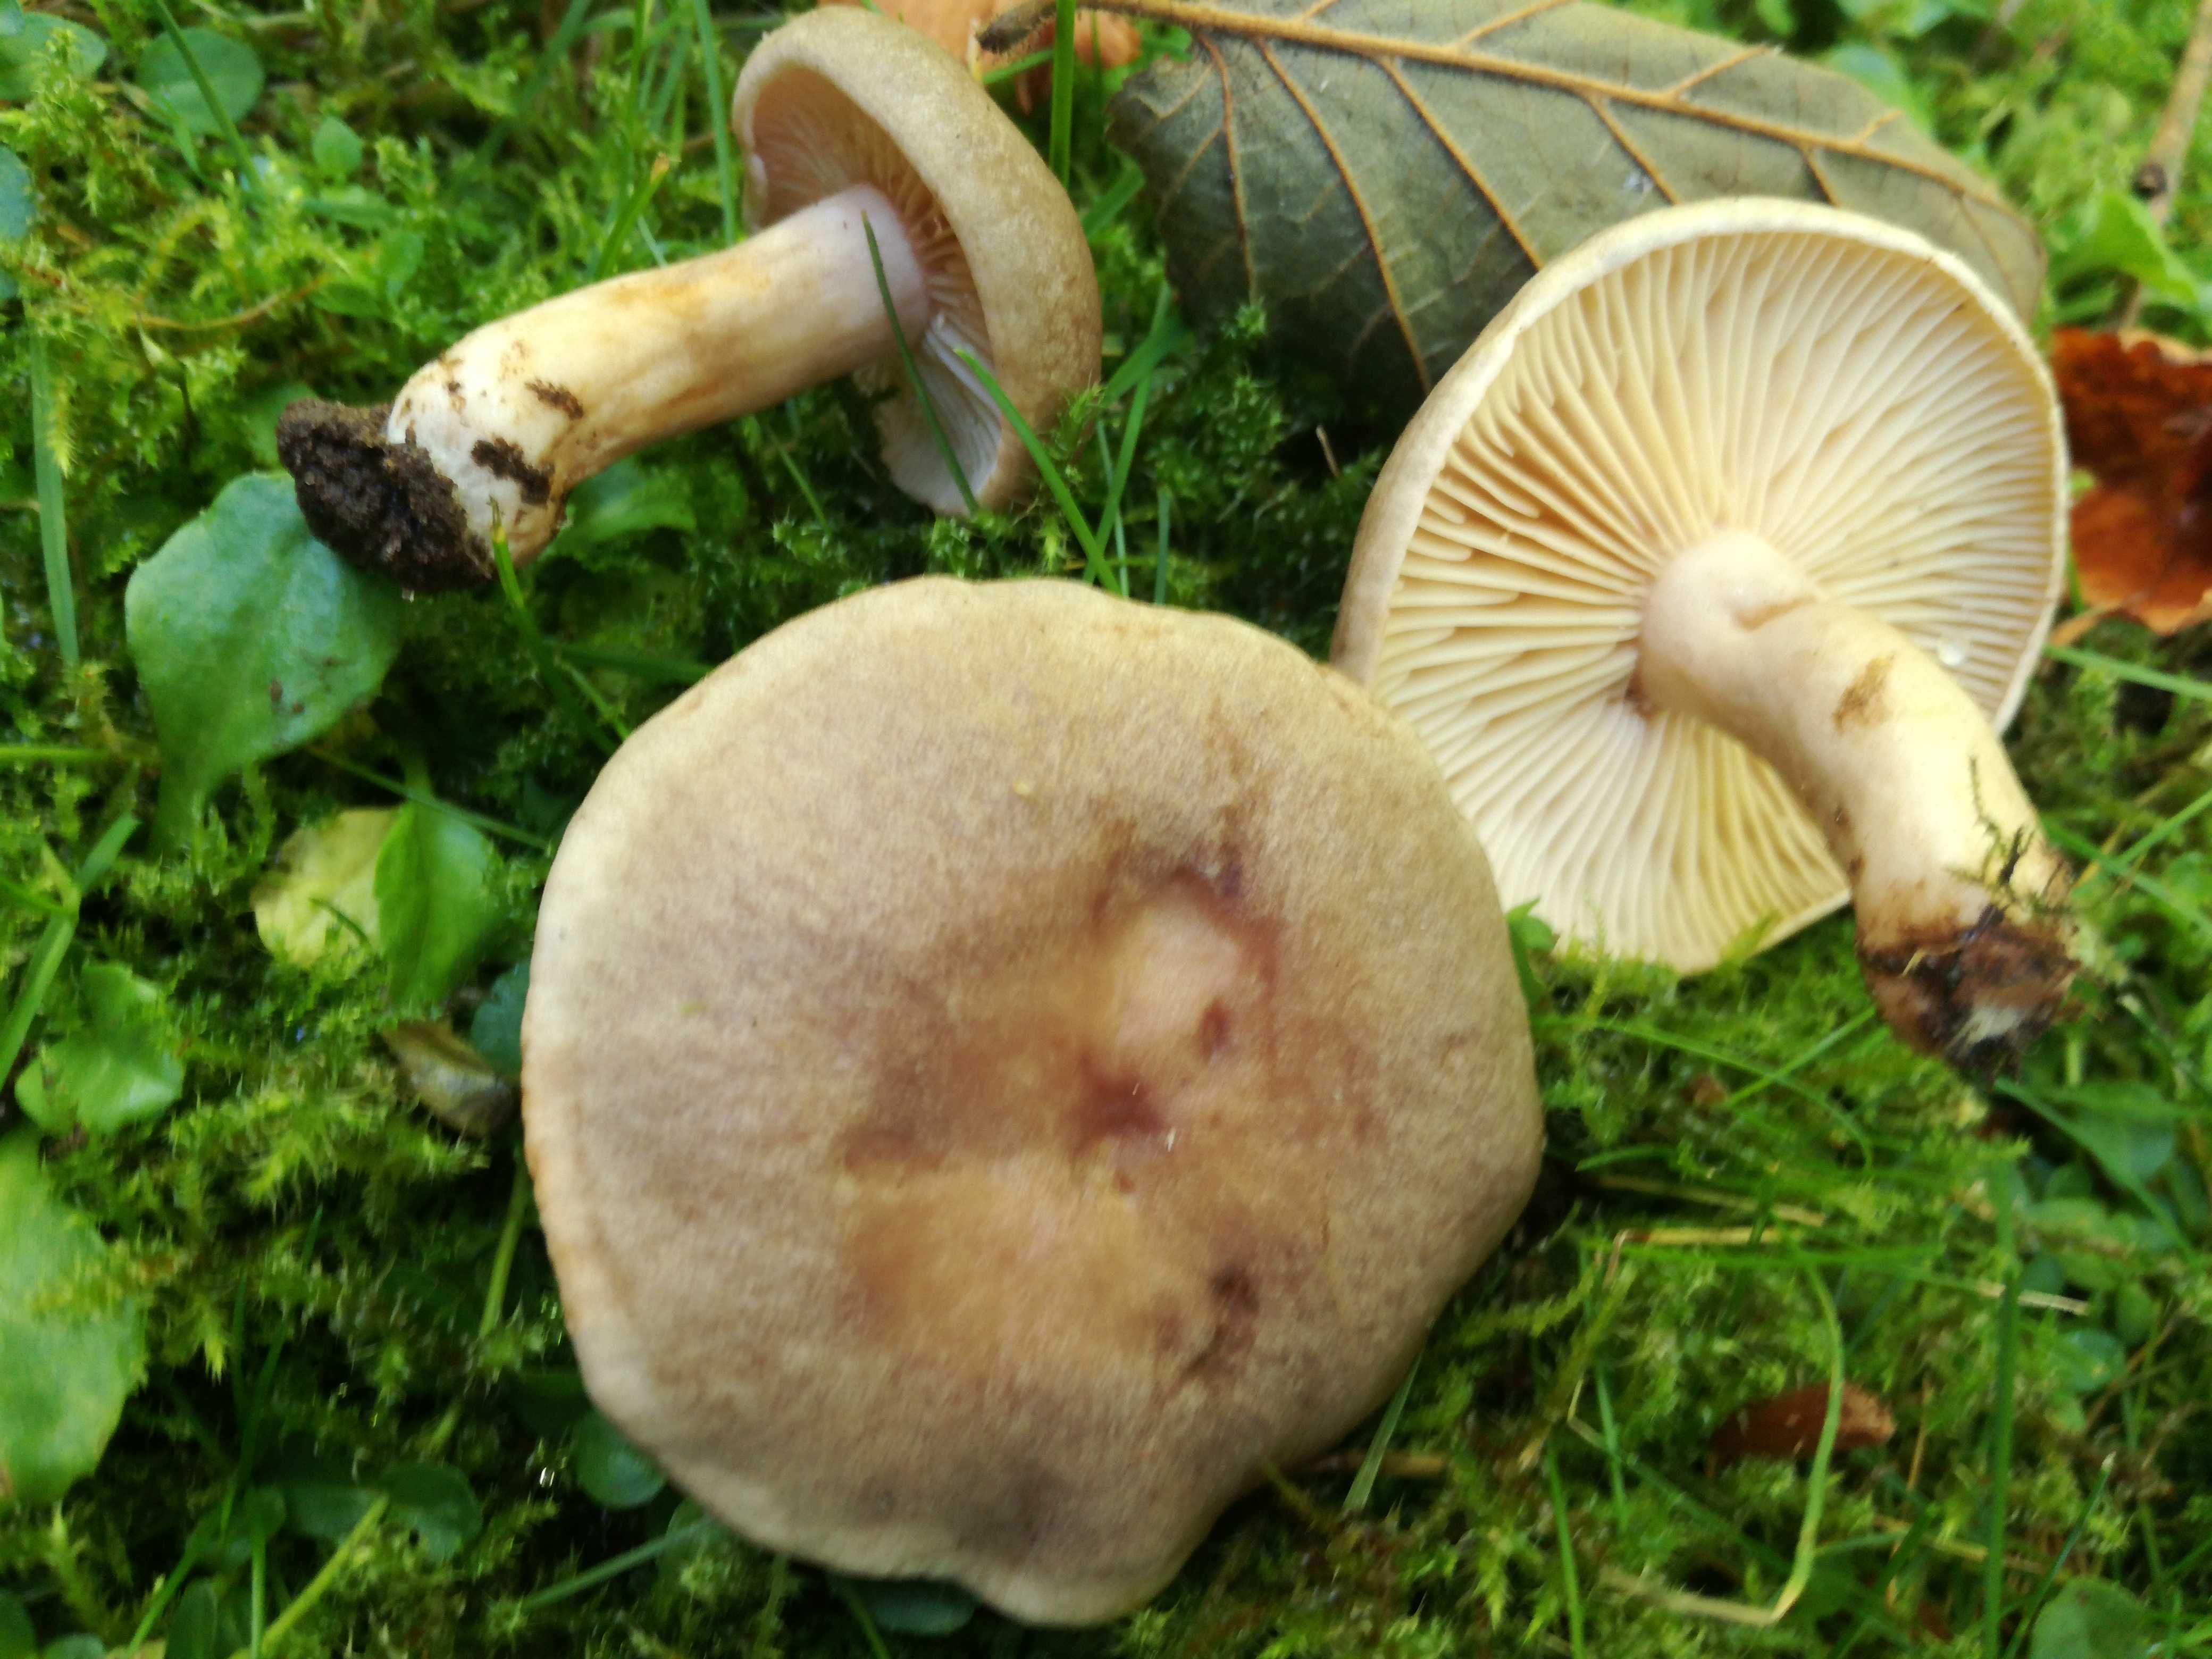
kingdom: Fungi
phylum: Basidiomycota
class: Agaricomycetes
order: Russulales
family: Russulaceae
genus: Lactarius
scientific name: Lactarius pyrogalus
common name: hassel-mælkehat
